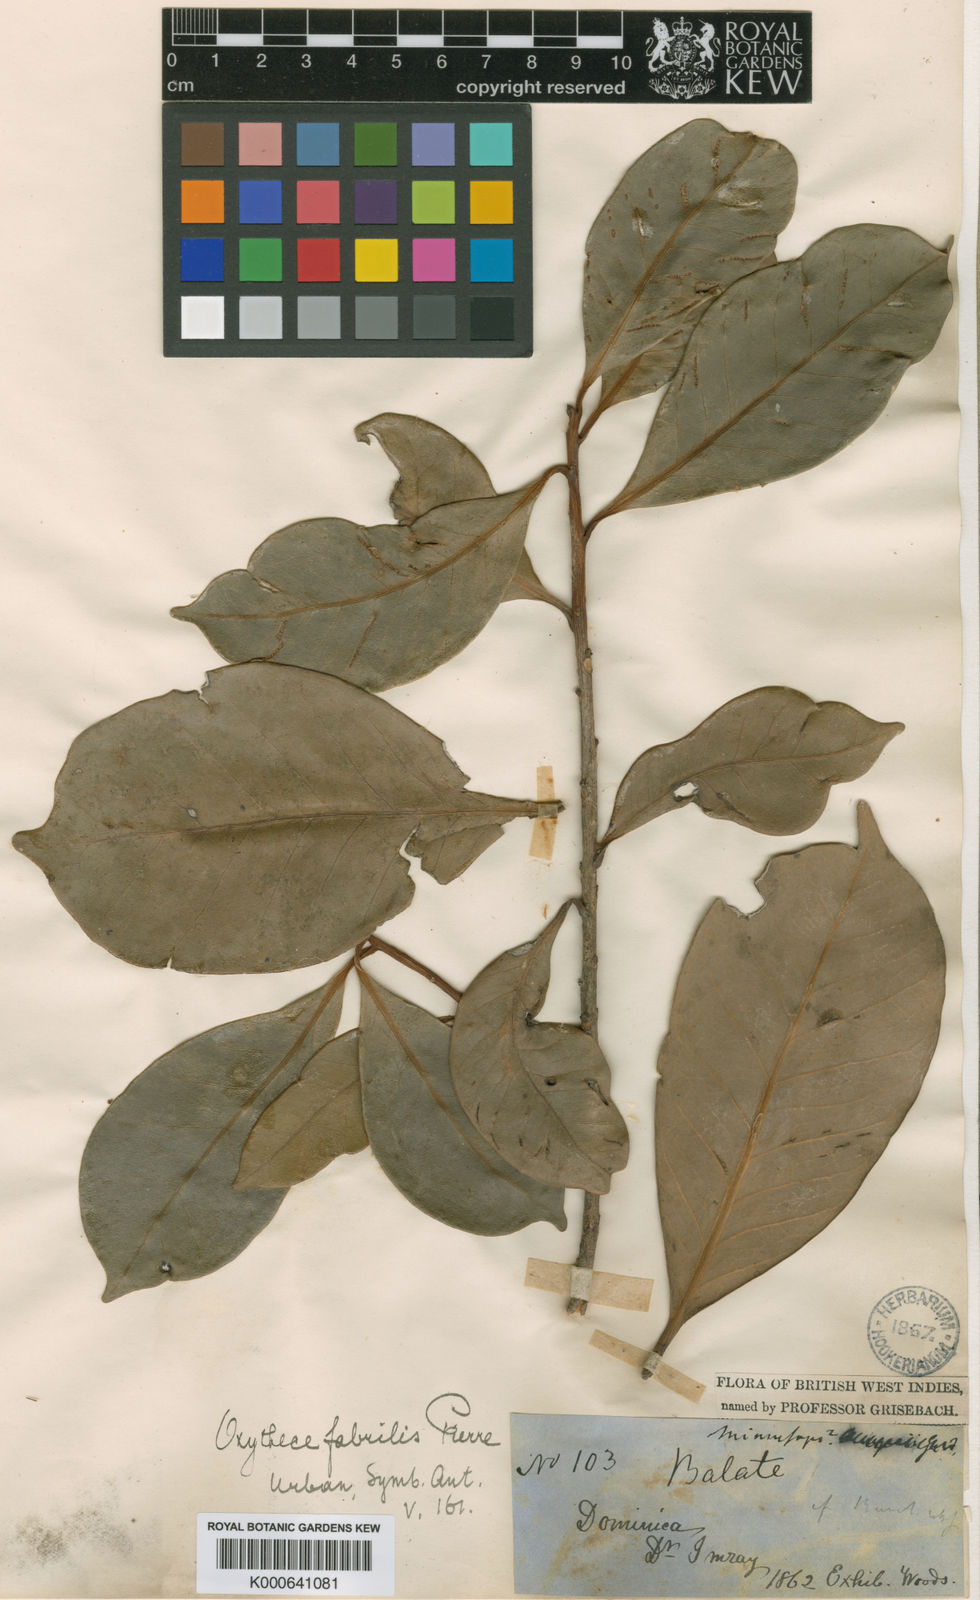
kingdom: Plantae
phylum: Tracheophyta
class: Magnoliopsida
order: Ericales
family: Sapotaceae
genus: Pouteria
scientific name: Pouteria pallida
